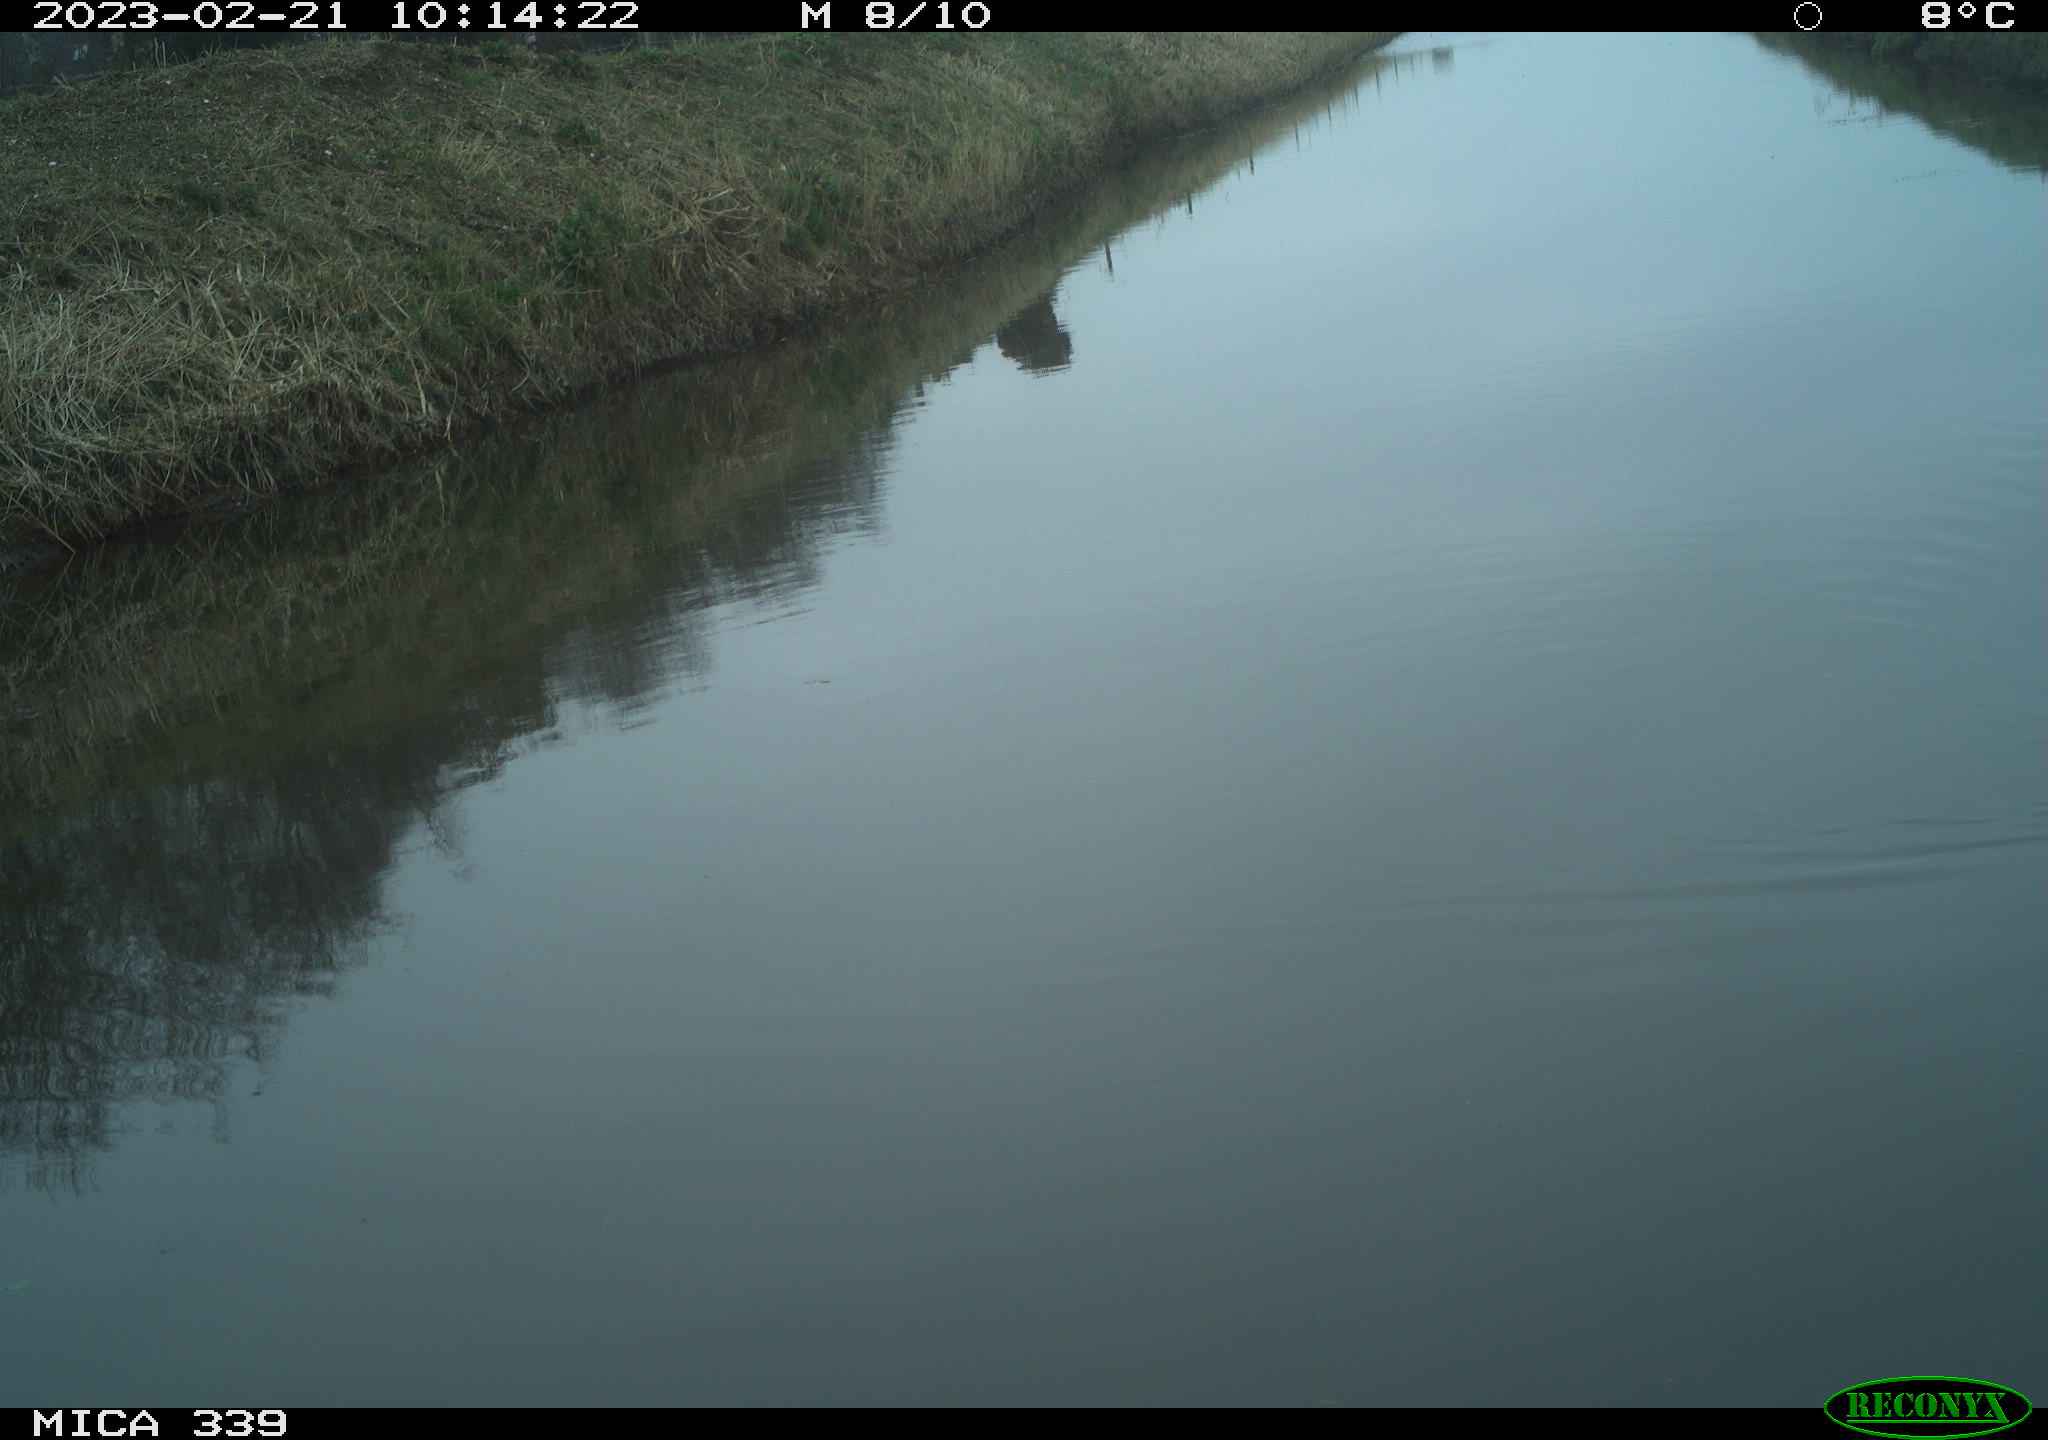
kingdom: Animalia
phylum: Chordata
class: Aves
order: Gruiformes
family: Rallidae
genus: Gallinula
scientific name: Gallinula chloropus
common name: Common moorhen
